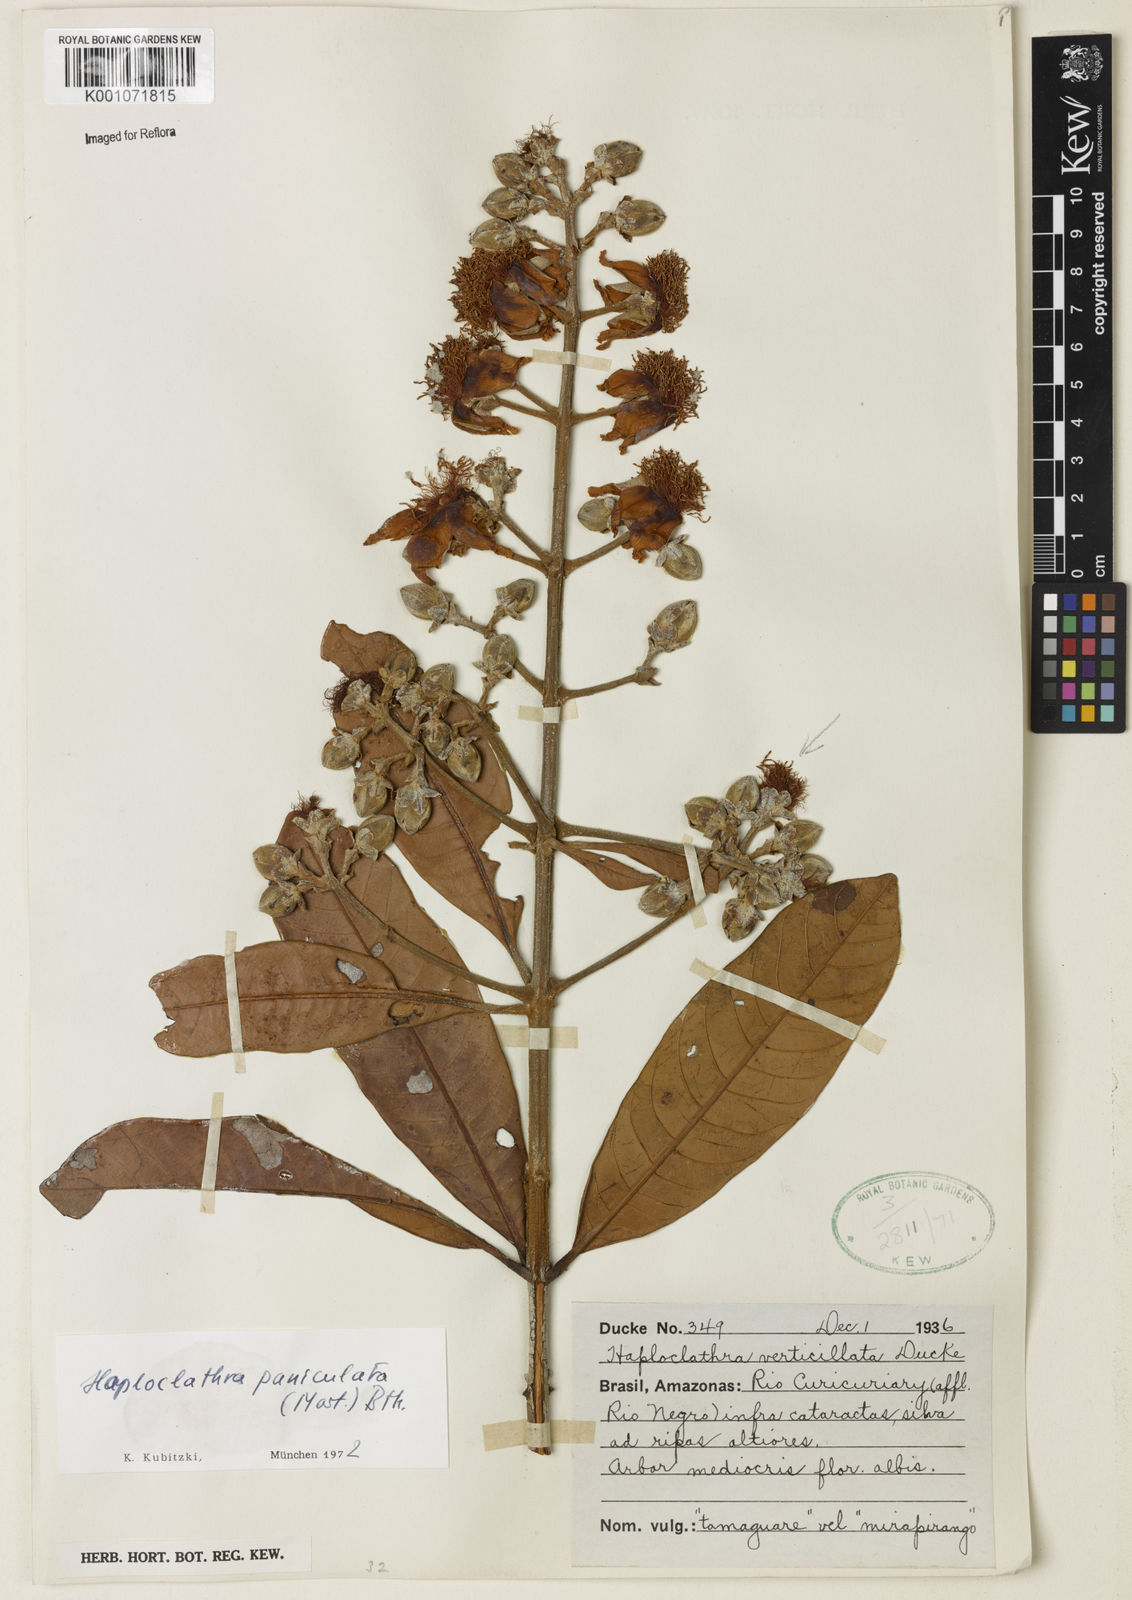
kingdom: Plantae
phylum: Tracheophyta
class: Magnoliopsida
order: Malpighiales
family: Calophyllaceae
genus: Haploclathra
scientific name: Haploclathra paniculata
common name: Red-wood
